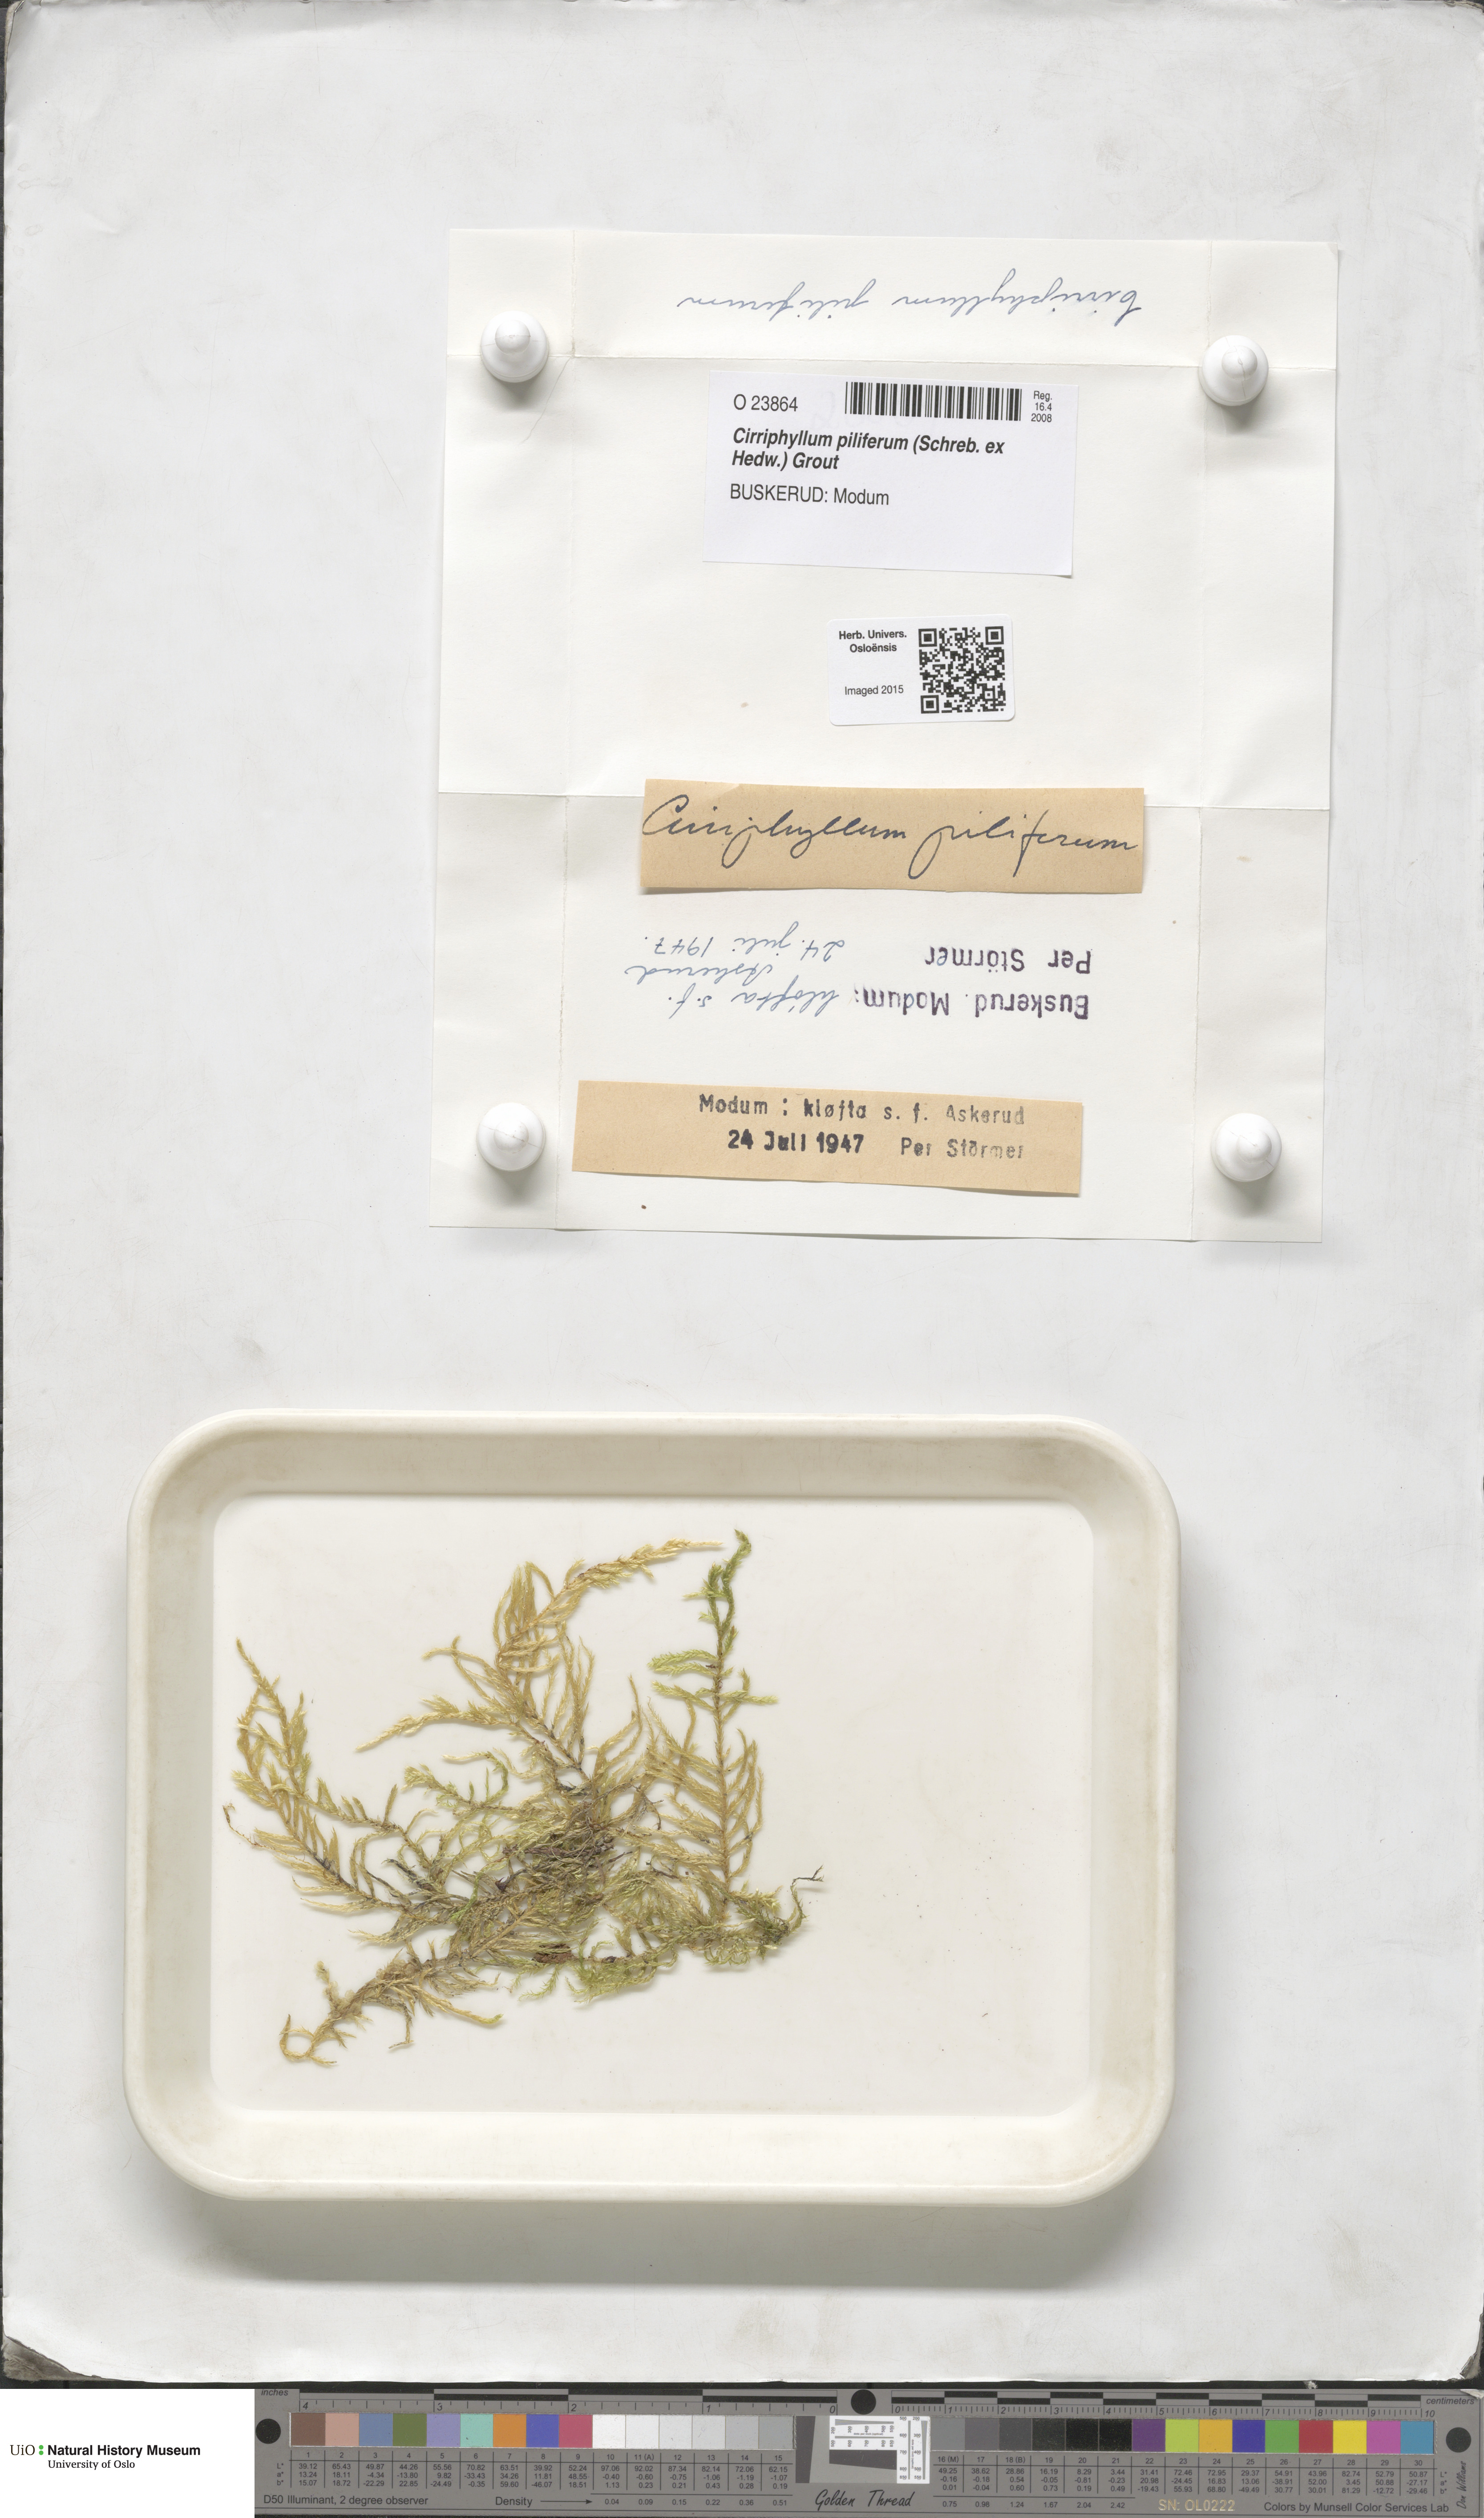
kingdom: Plantae
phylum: Bryophyta
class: Bryopsida
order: Hypnales
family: Brachytheciaceae
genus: Cirriphyllum
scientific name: Cirriphyllum piliferum
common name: Hair-pointed moss
